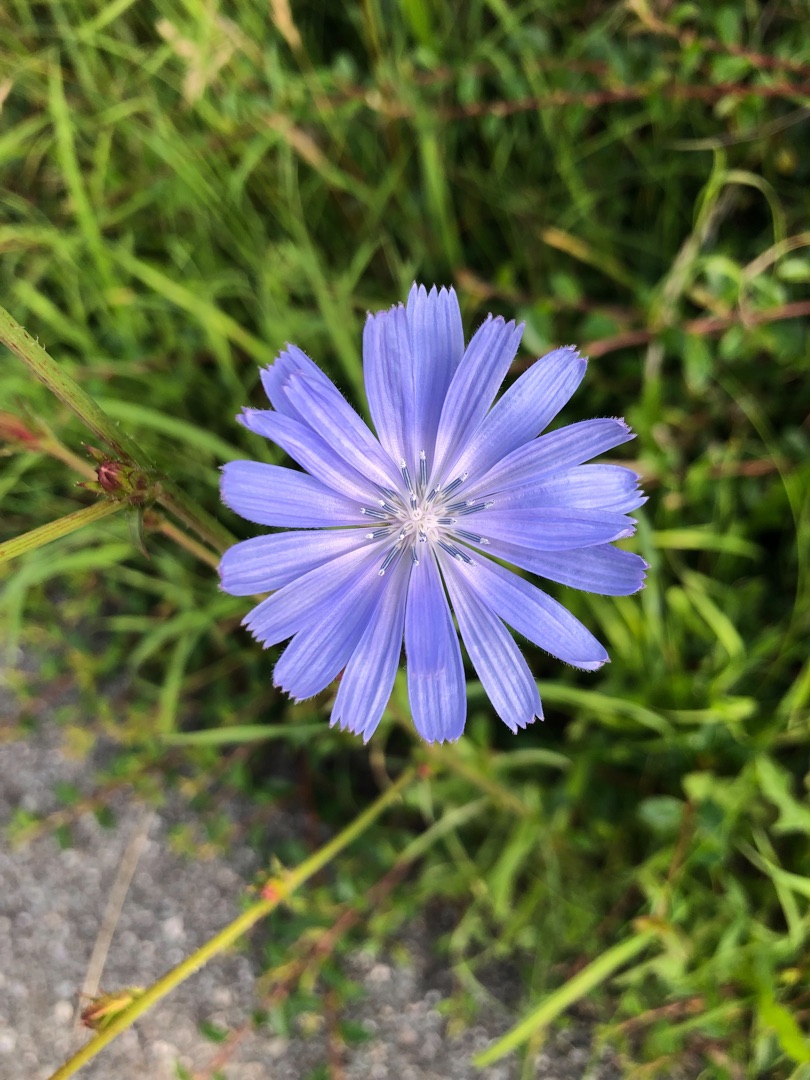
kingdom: Plantae
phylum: Tracheophyta
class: Magnoliopsida
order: Asterales
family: Asteraceae
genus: Cichorium
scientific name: Cichorium intybus
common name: Cikorie
